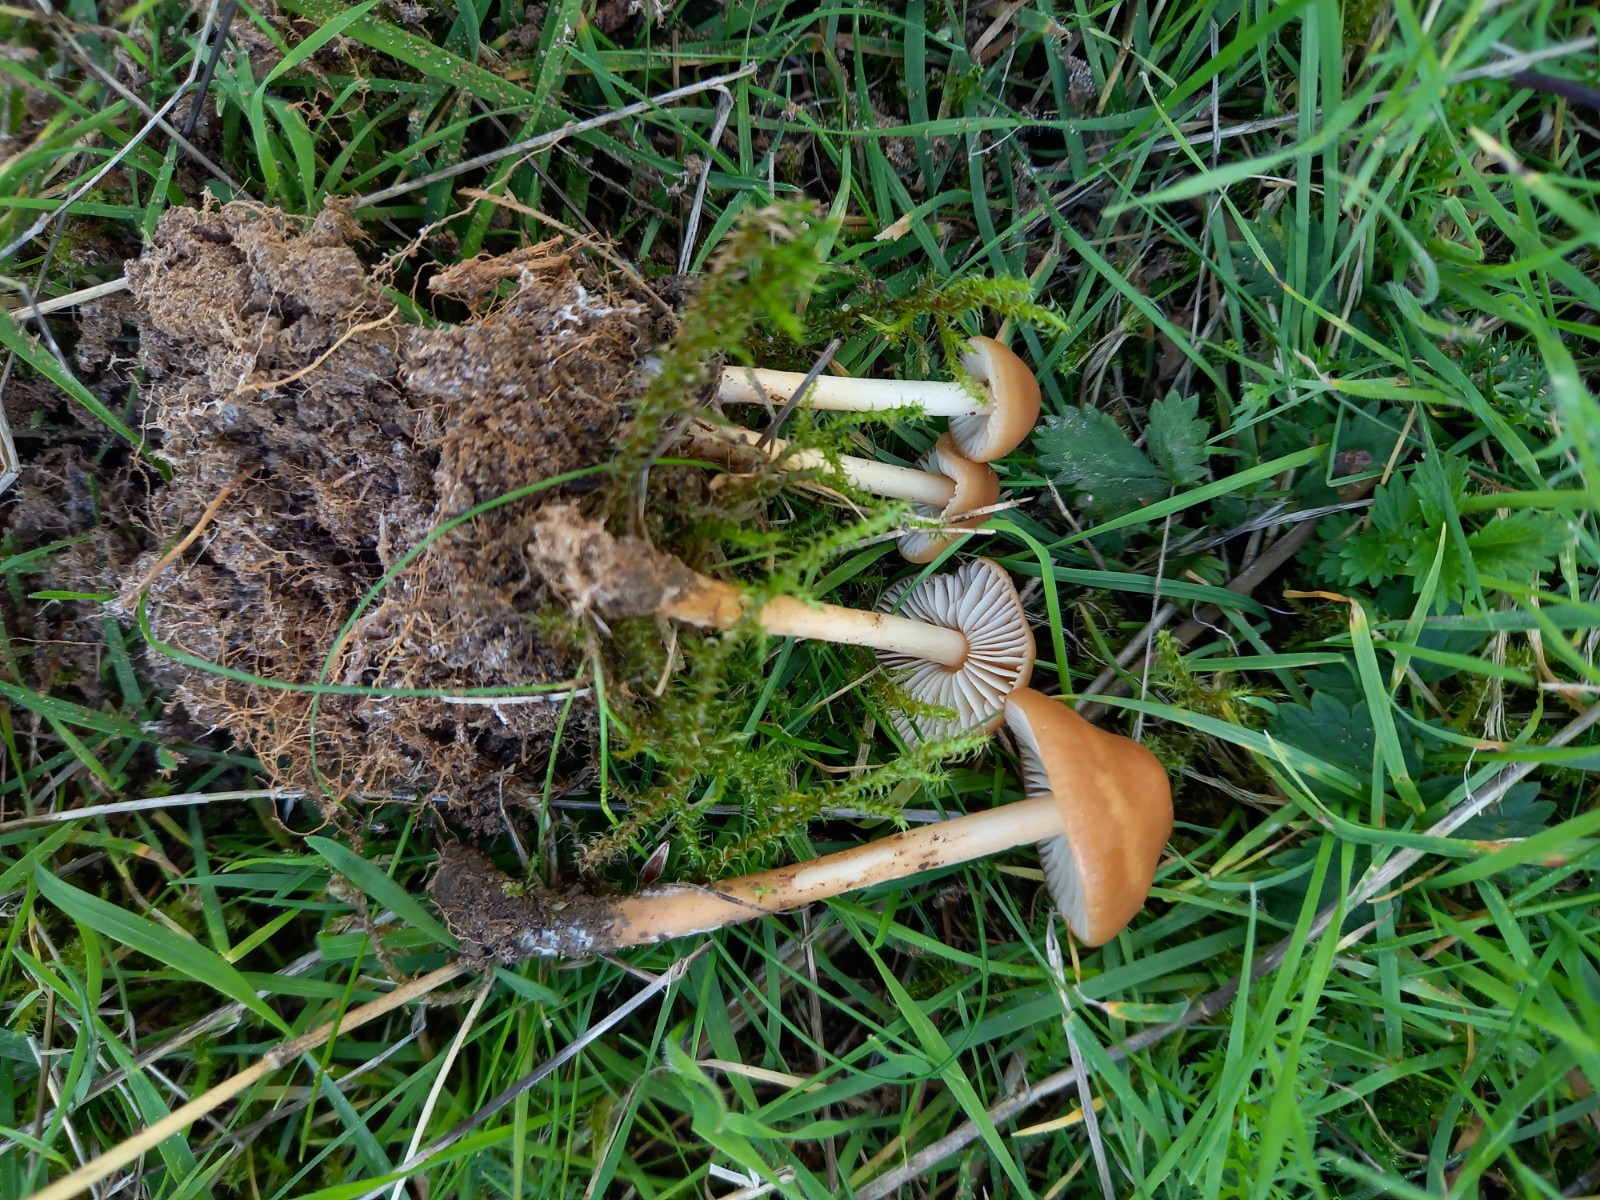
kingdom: Fungi
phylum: Basidiomycota
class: Agaricomycetes
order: Agaricales
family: Marasmiaceae
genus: Marasmius
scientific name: Marasmius oreades
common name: elledans-bruskhat
